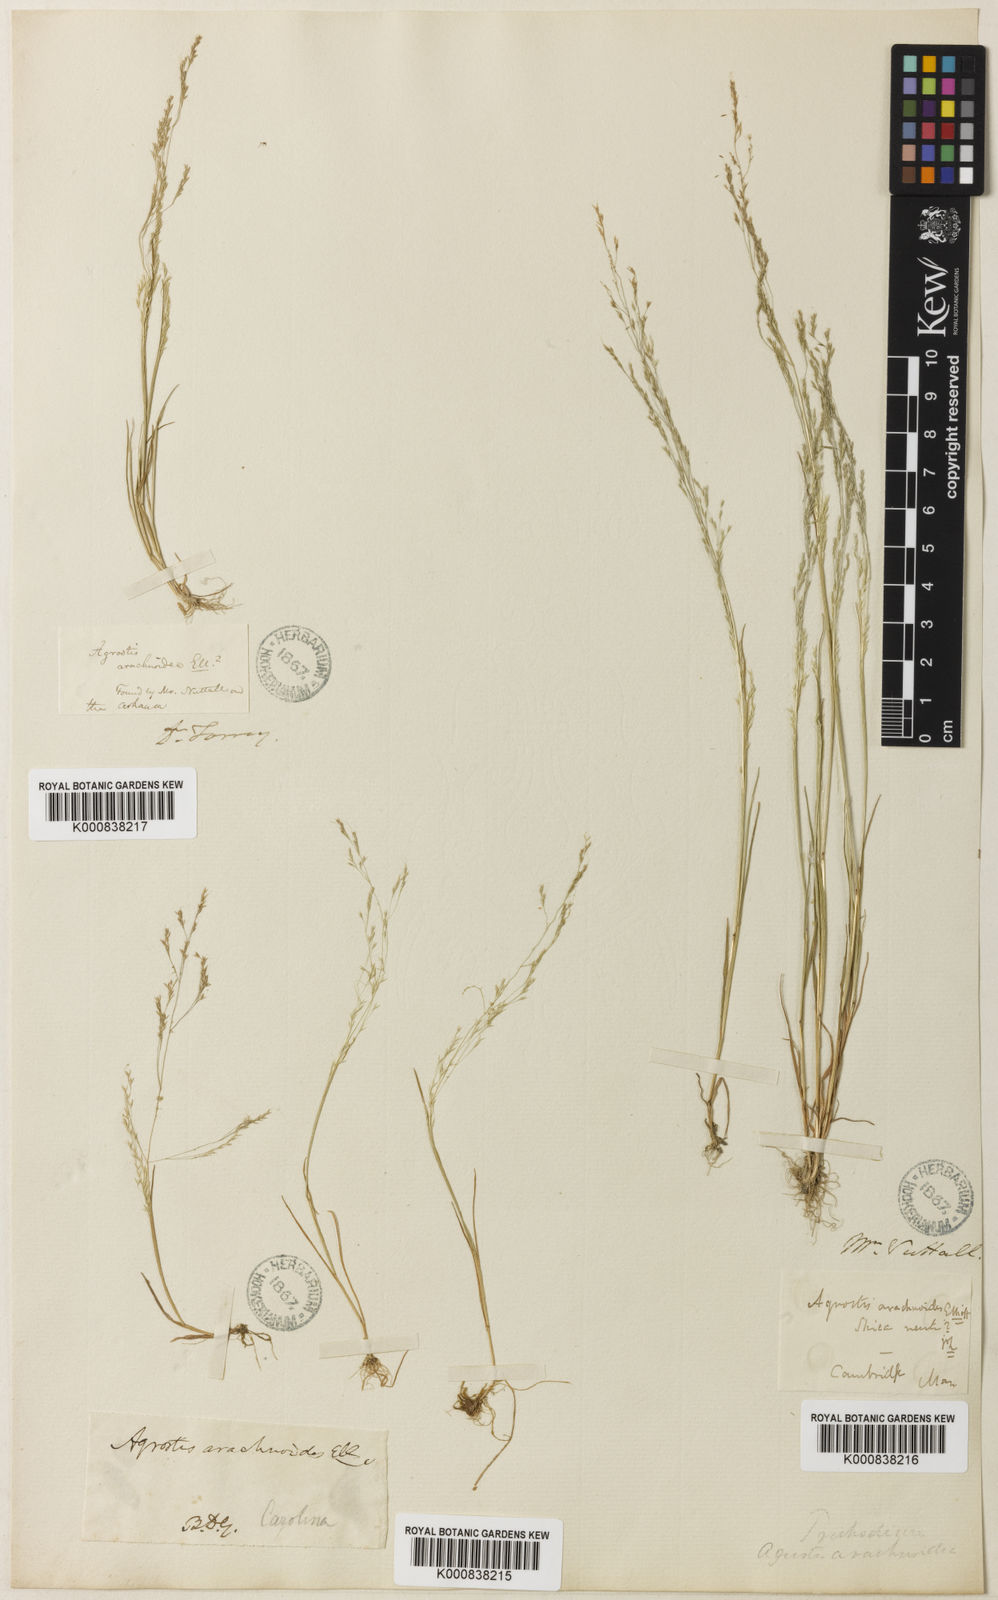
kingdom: Plantae
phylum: Tracheophyta
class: Liliopsida
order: Poales
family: Poaceae
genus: Agrostis
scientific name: Agrostis elliottiana
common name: Elliott's bent
